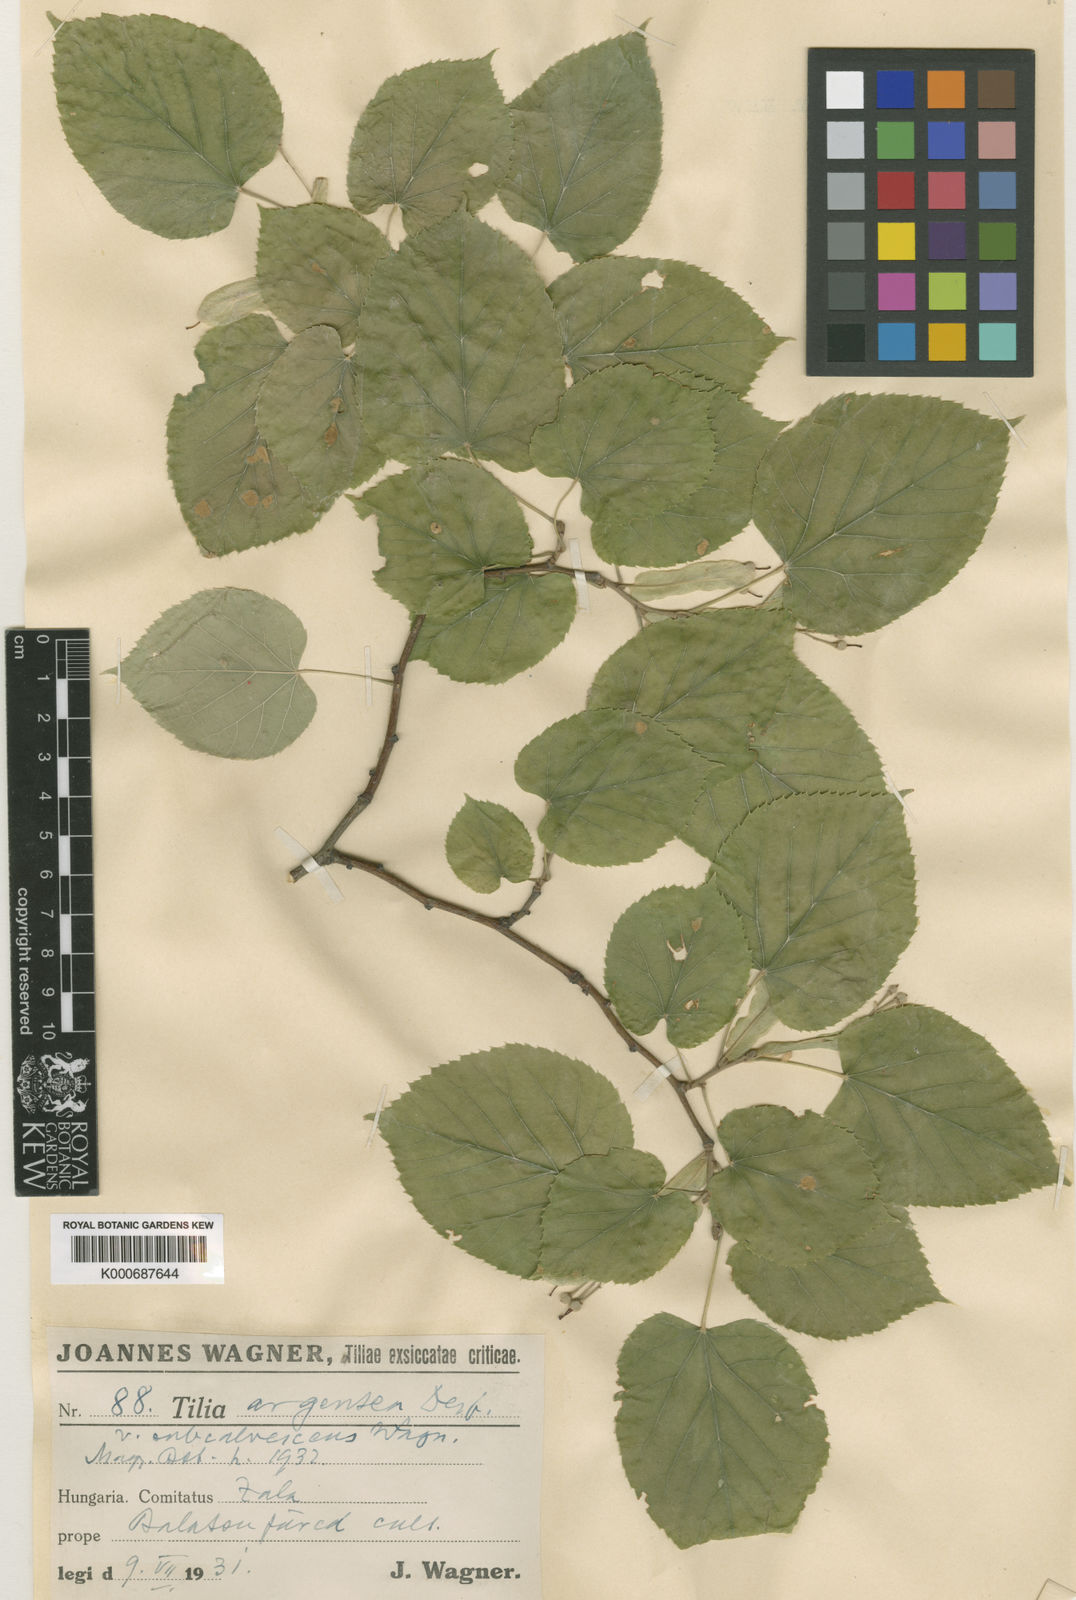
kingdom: Plantae
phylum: Tracheophyta
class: Magnoliopsida
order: Malvales
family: Malvaceae
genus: Tilia
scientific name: Tilia tomentosa
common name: Silver lime
